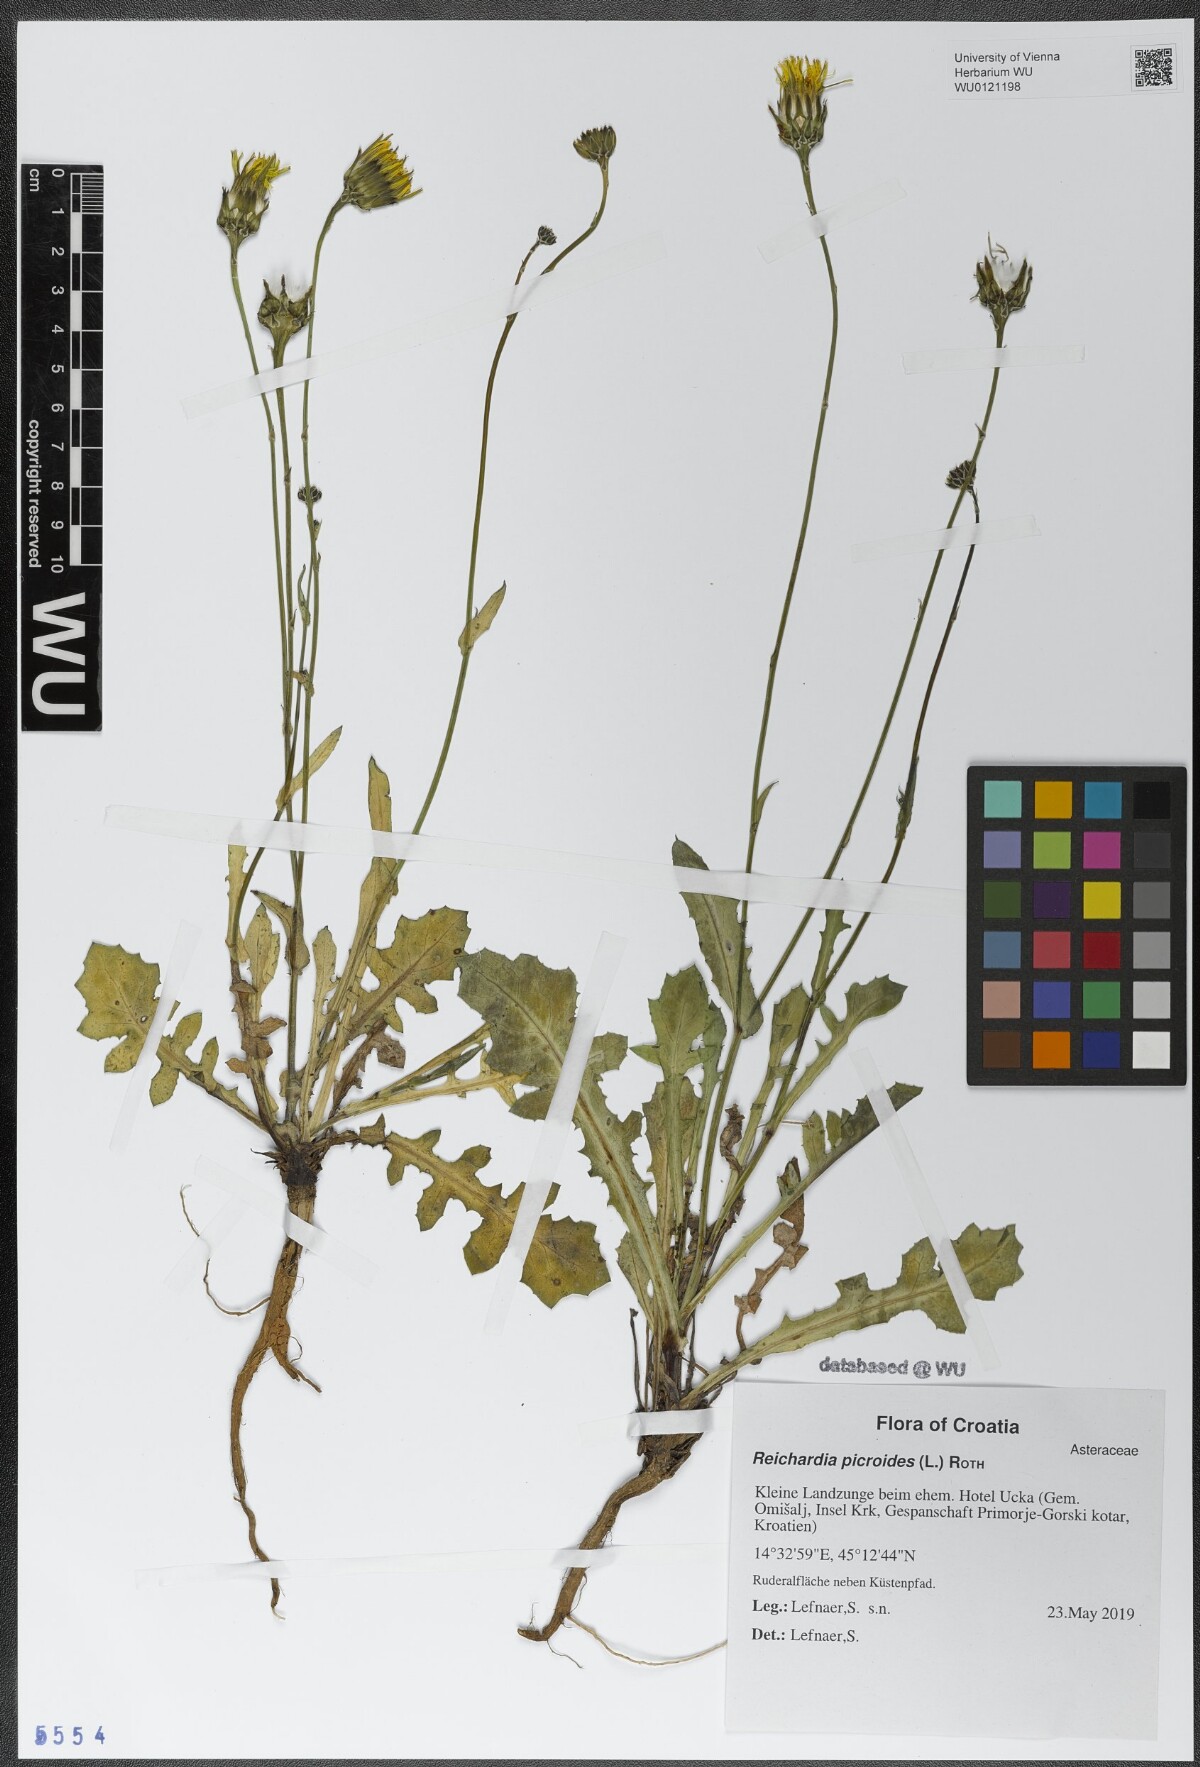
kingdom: Plantae
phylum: Tracheophyta
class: Magnoliopsida
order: Asterales
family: Asteraceae
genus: Reichardia
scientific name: Reichardia picroides
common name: Common brighteyes
